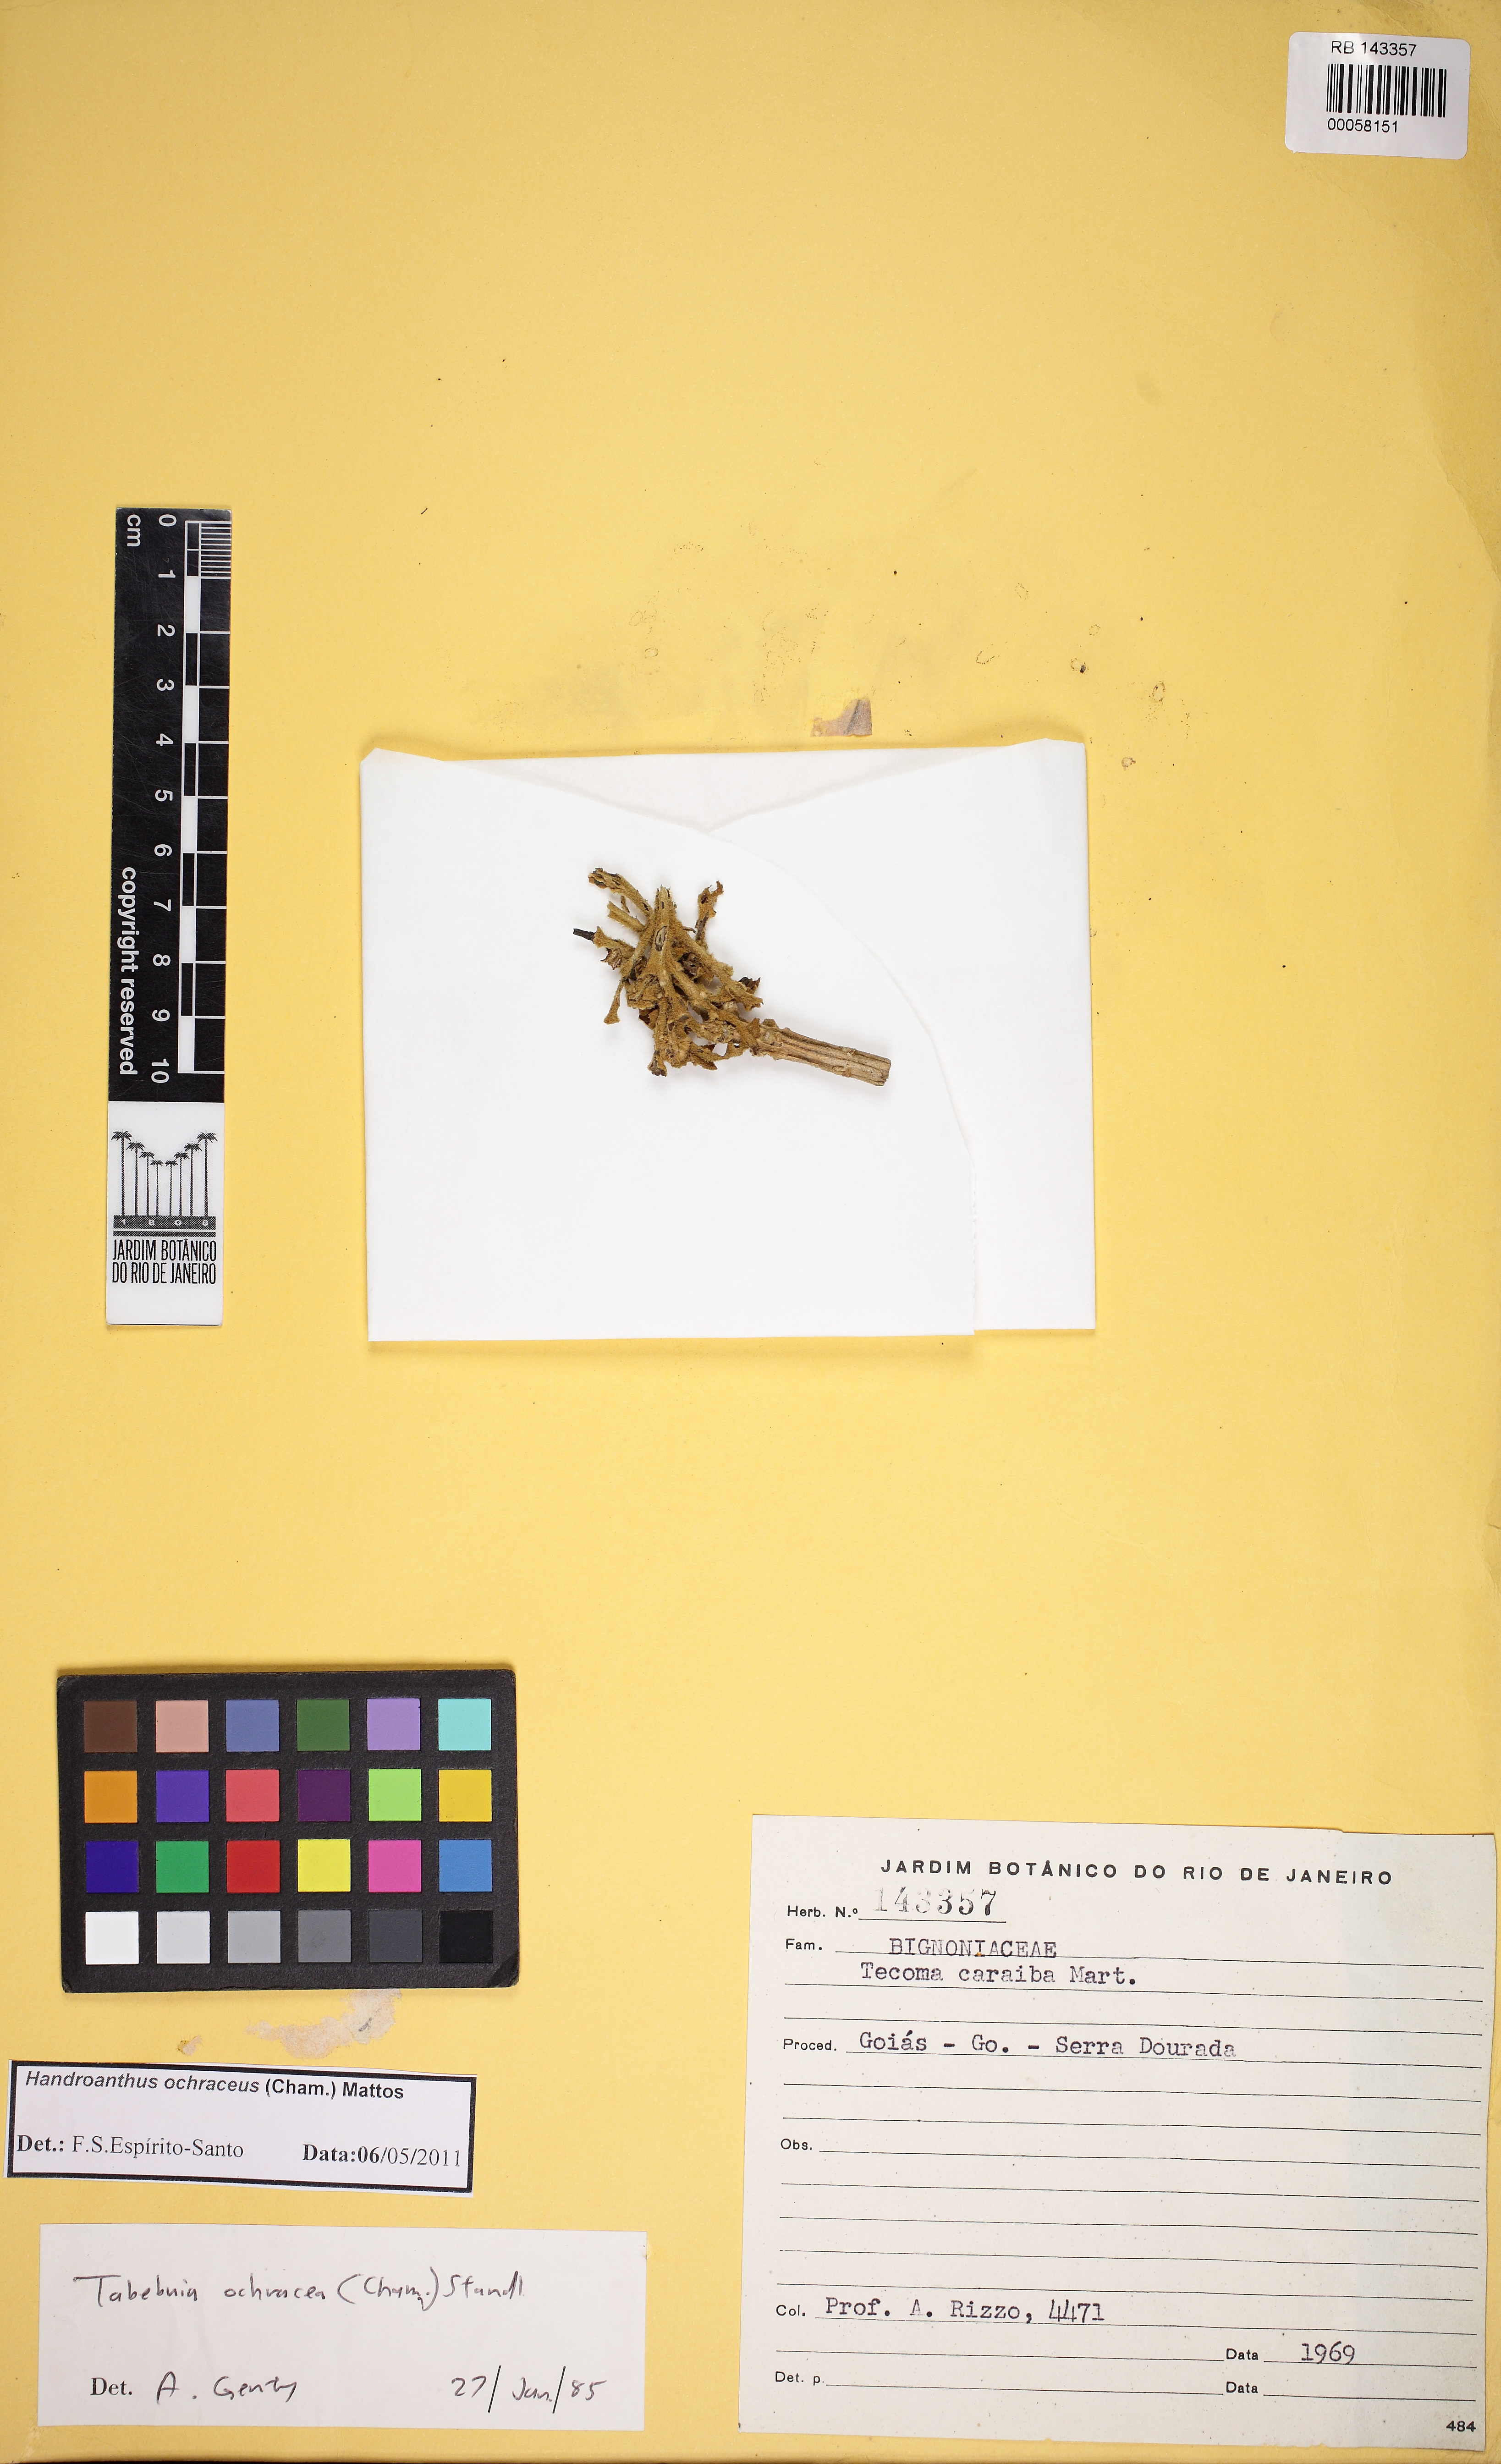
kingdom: Plantae
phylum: Tracheophyta
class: Magnoliopsida
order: Lamiales
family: Bignoniaceae
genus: Handroanthus
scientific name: Handroanthus ochraceus
